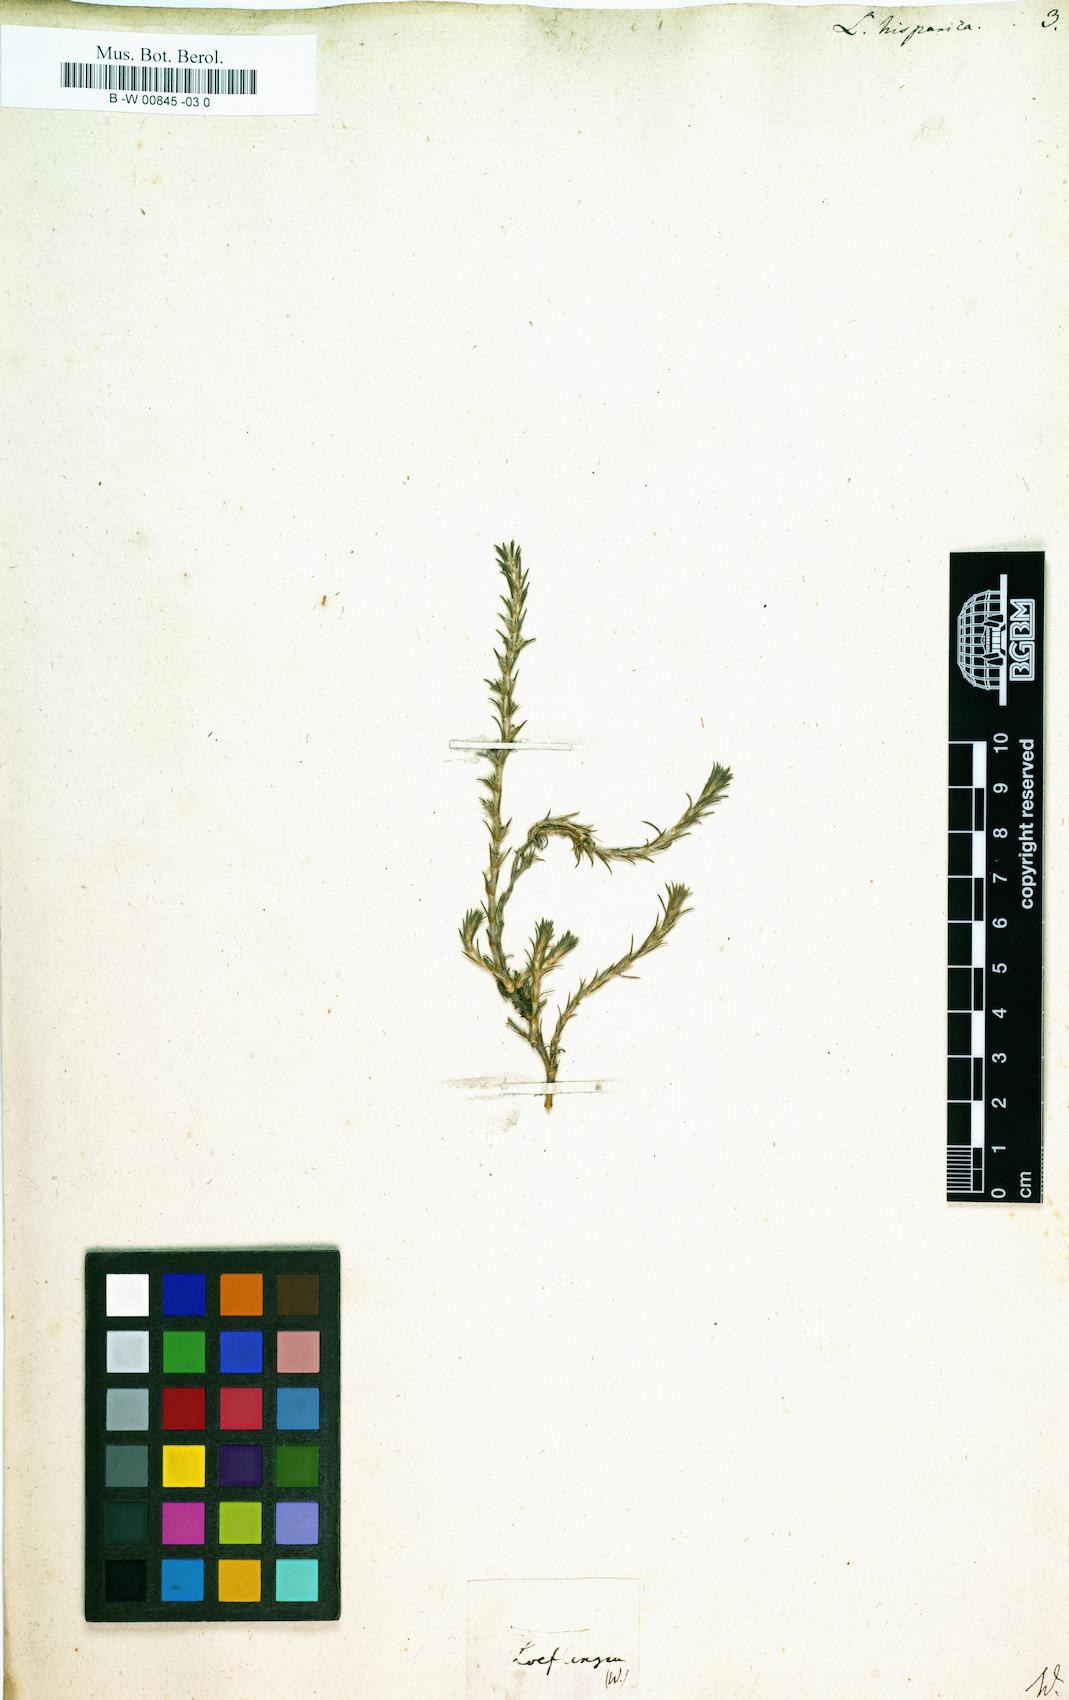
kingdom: Plantae
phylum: Tracheophyta
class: Magnoliopsida
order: Caryophyllales
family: Caryophyllaceae
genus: Loeflingia
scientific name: Loeflingia hispanica
